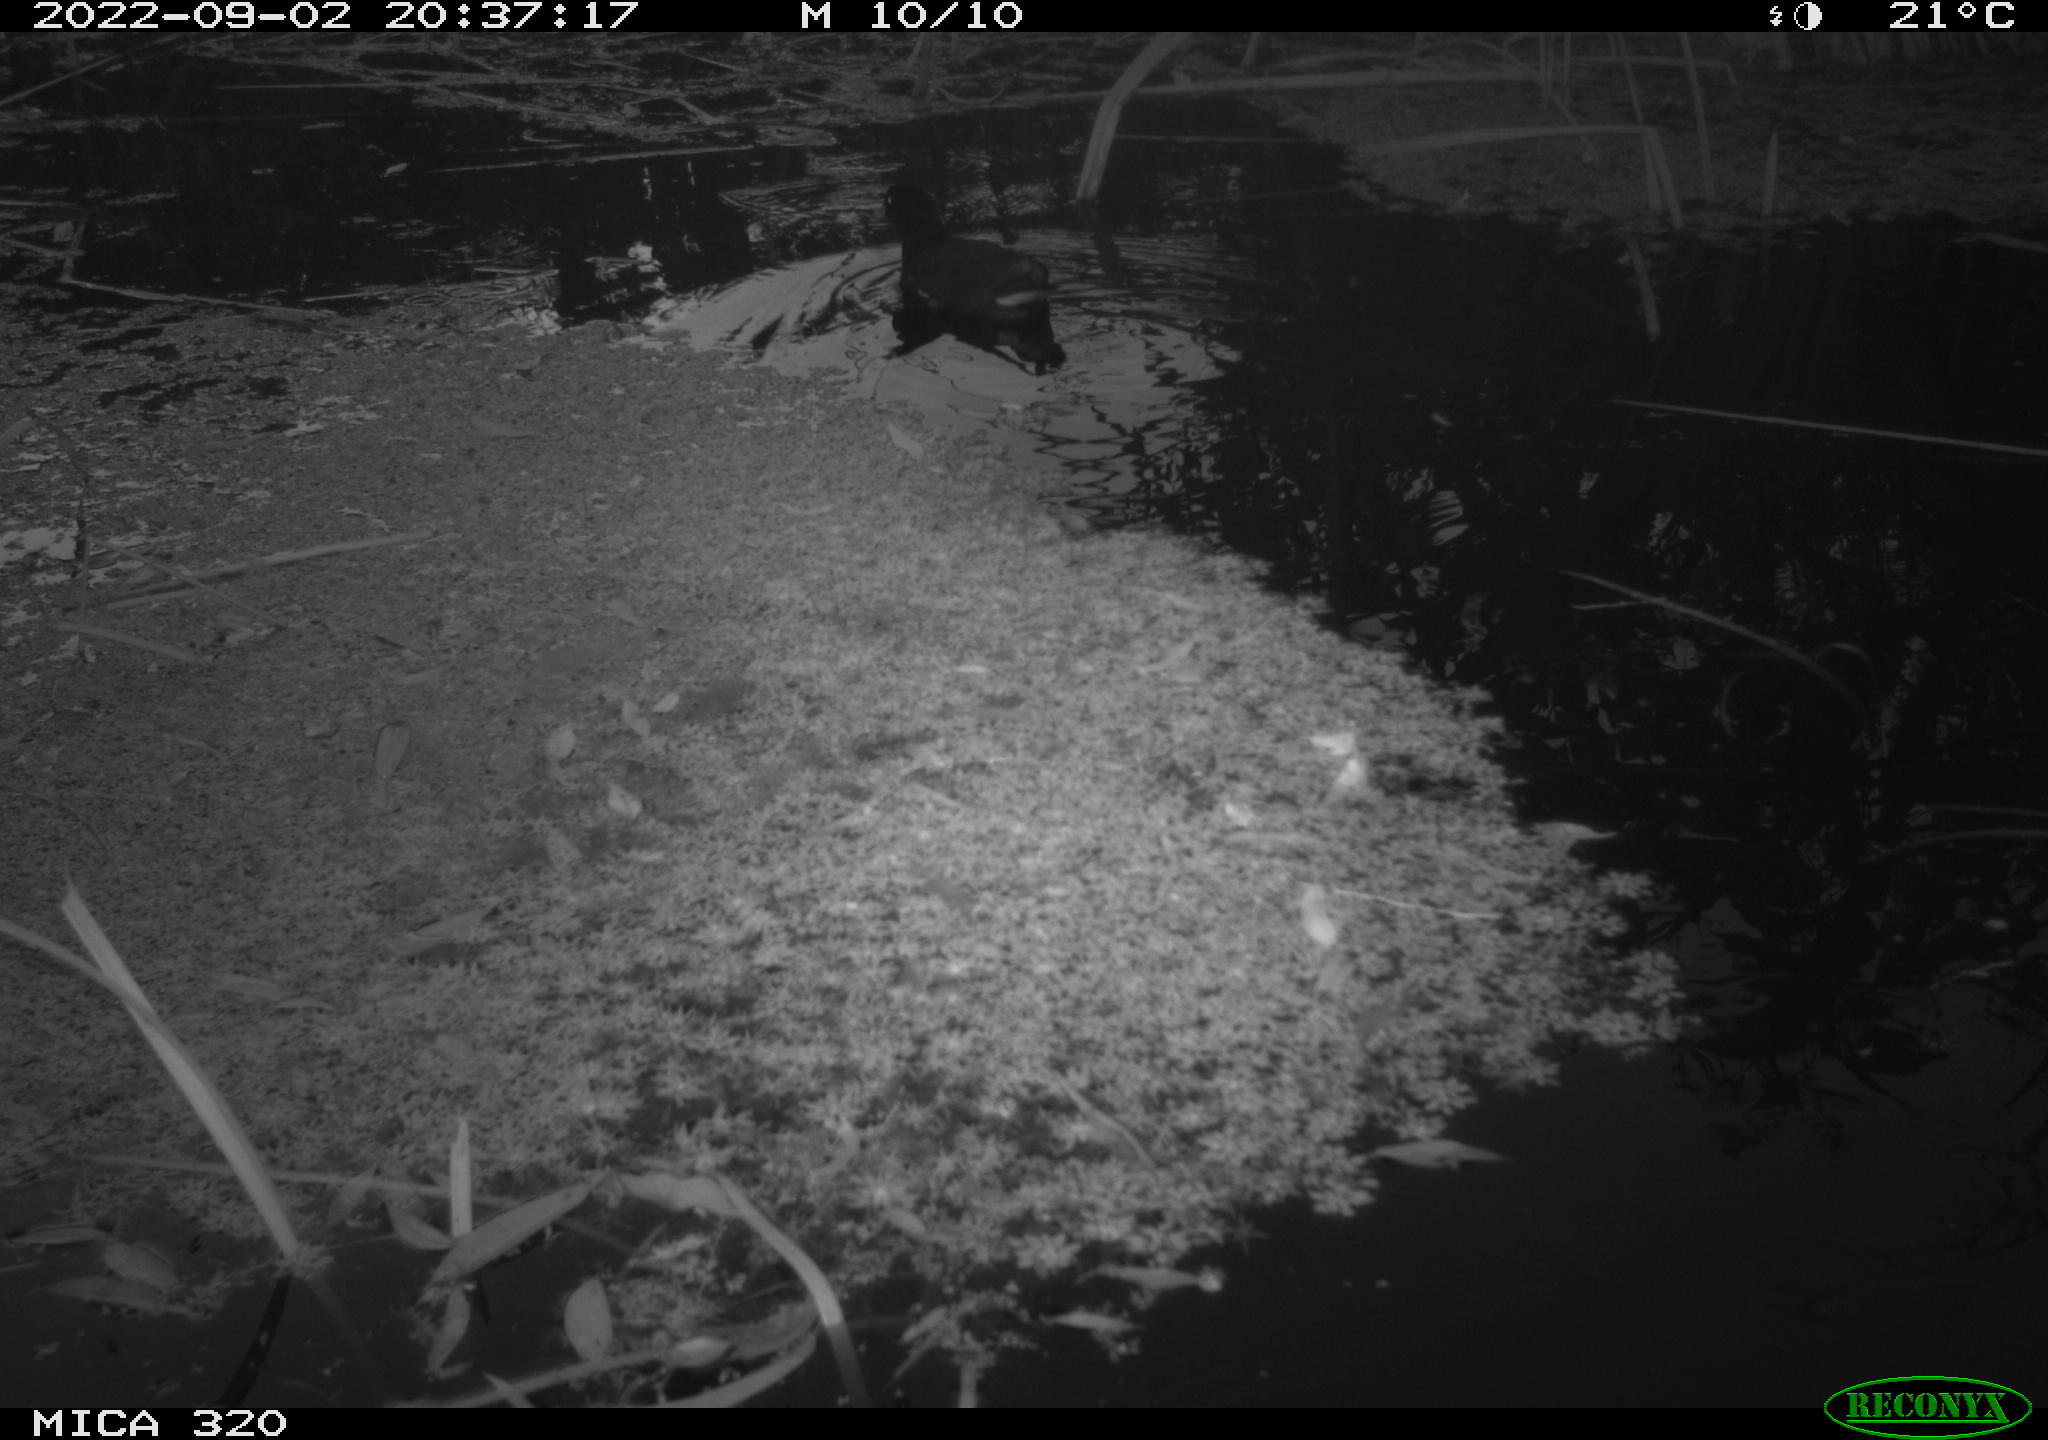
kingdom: Animalia
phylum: Chordata
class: Aves
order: Gruiformes
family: Rallidae
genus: Gallinula
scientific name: Gallinula chloropus
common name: Common moorhen
